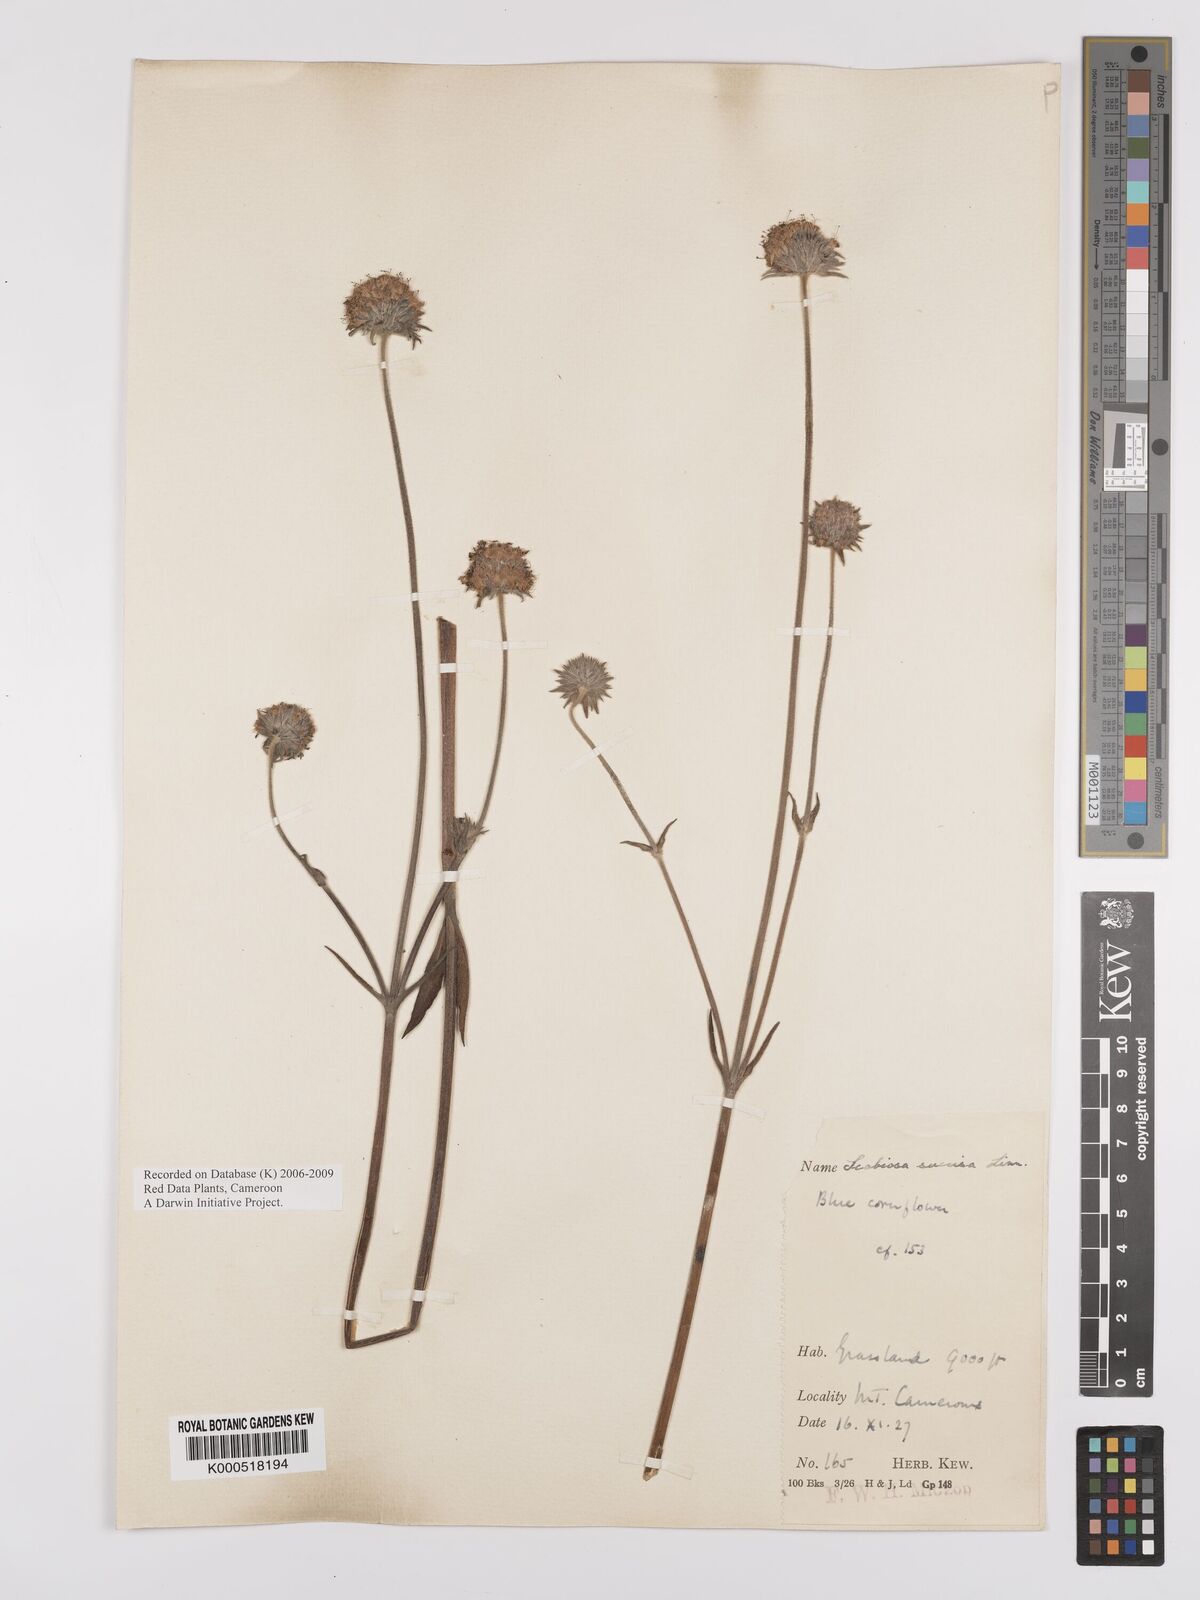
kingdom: Plantae
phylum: Tracheophyta
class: Magnoliopsida
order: Dipsacales
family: Caprifoliaceae
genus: Succisa
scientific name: Succisa trichotocephala
